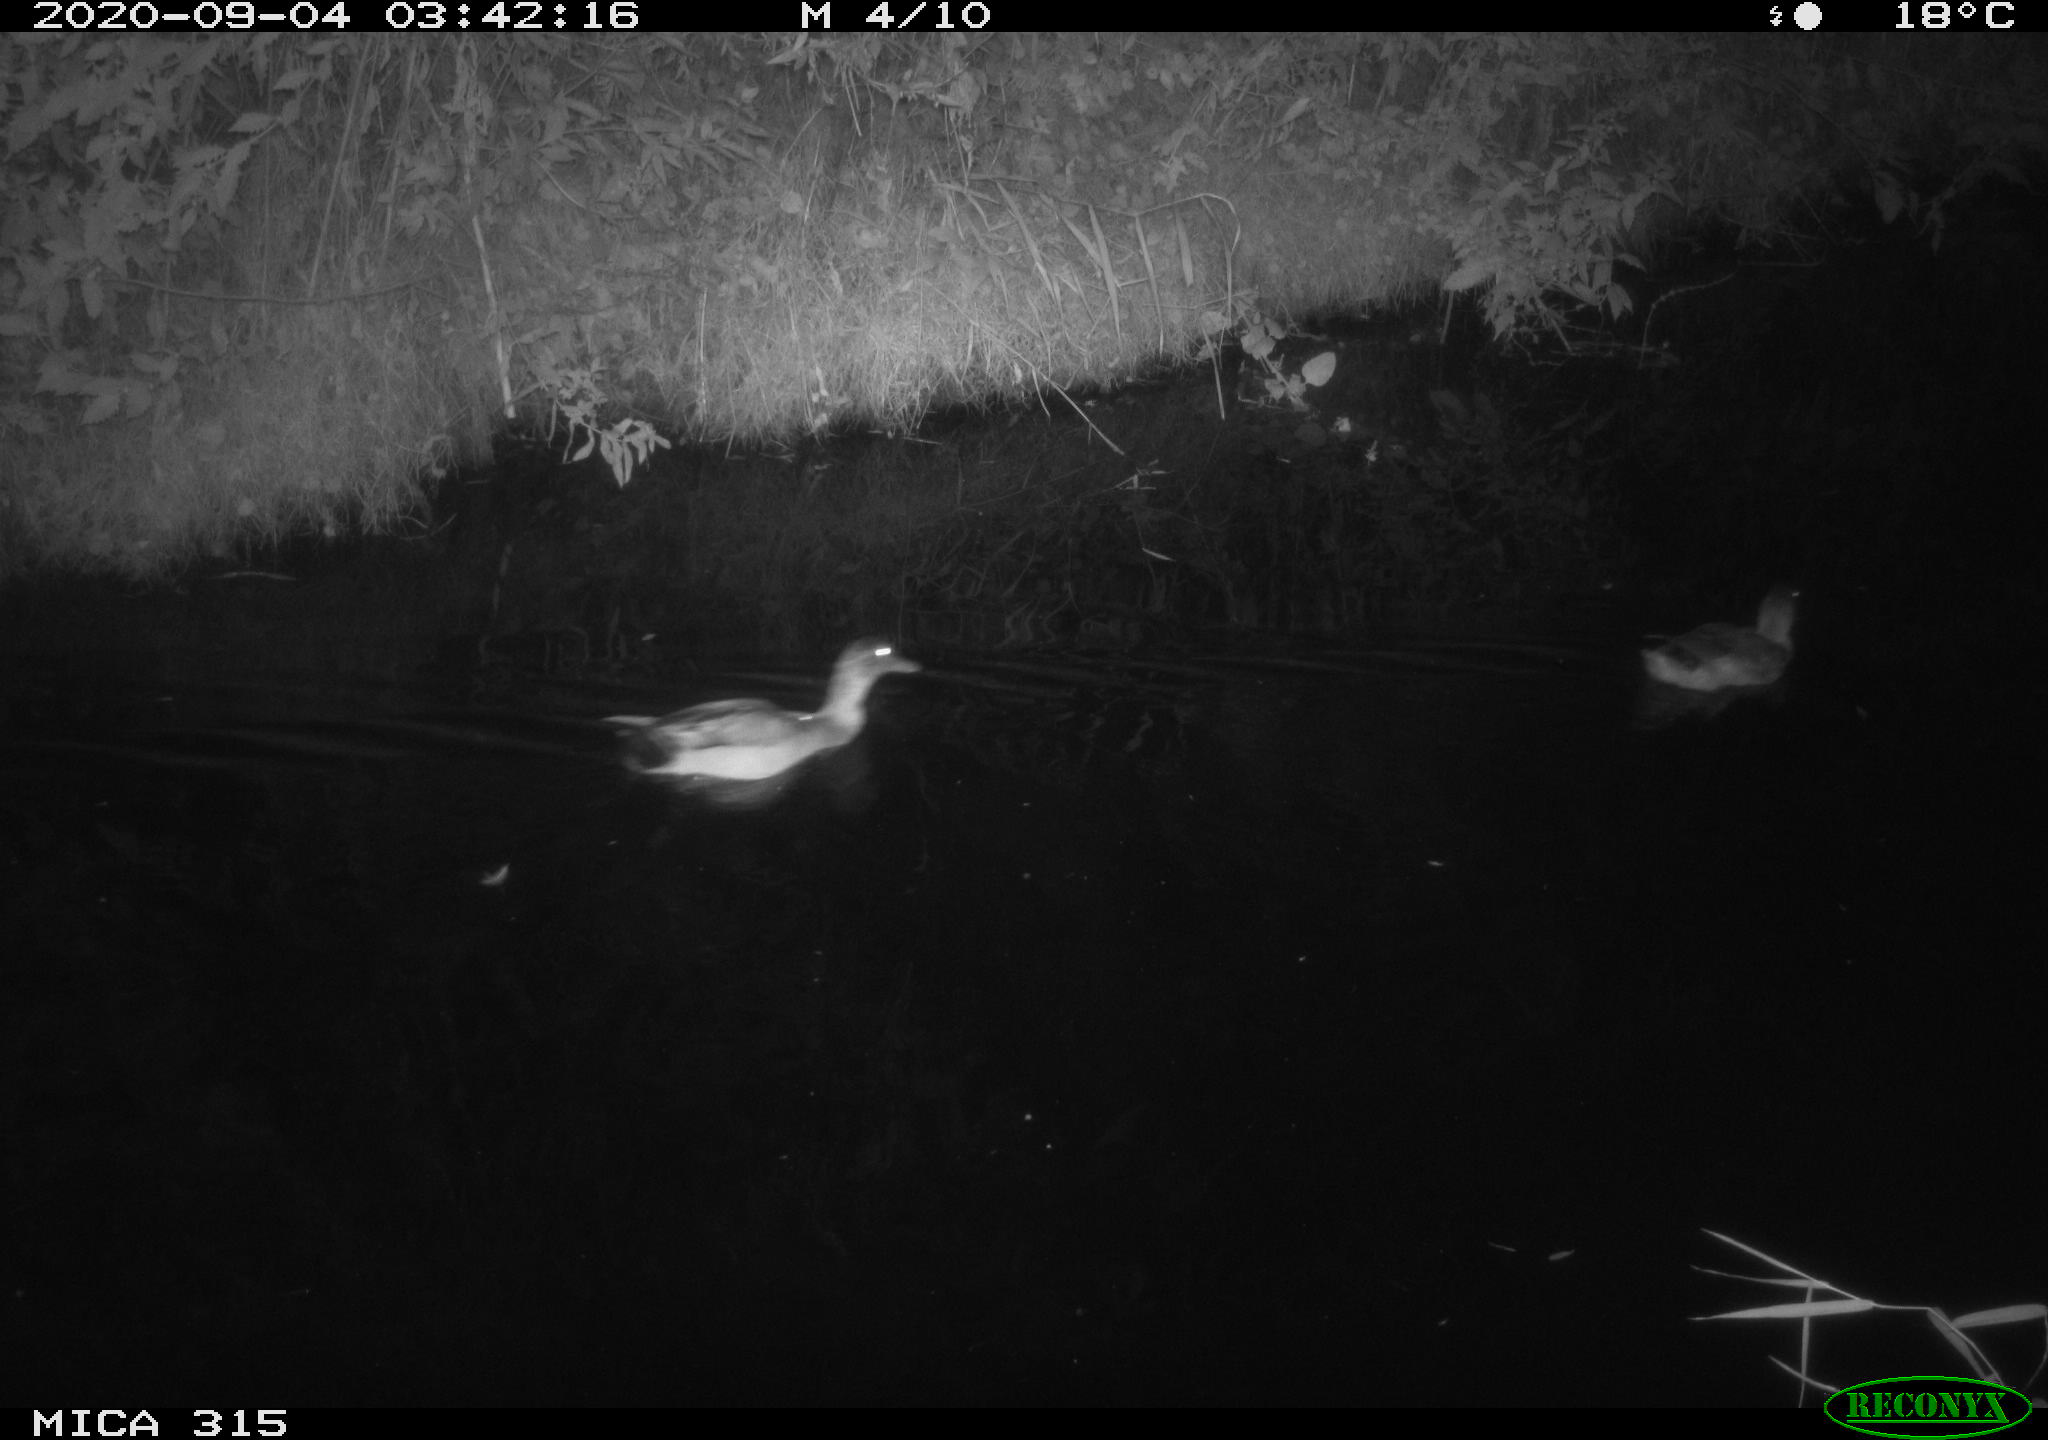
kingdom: Animalia
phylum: Chordata
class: Aves
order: Anseriformes
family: Anatidae
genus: Anas
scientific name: Anas platyrhynchos
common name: Mallard
